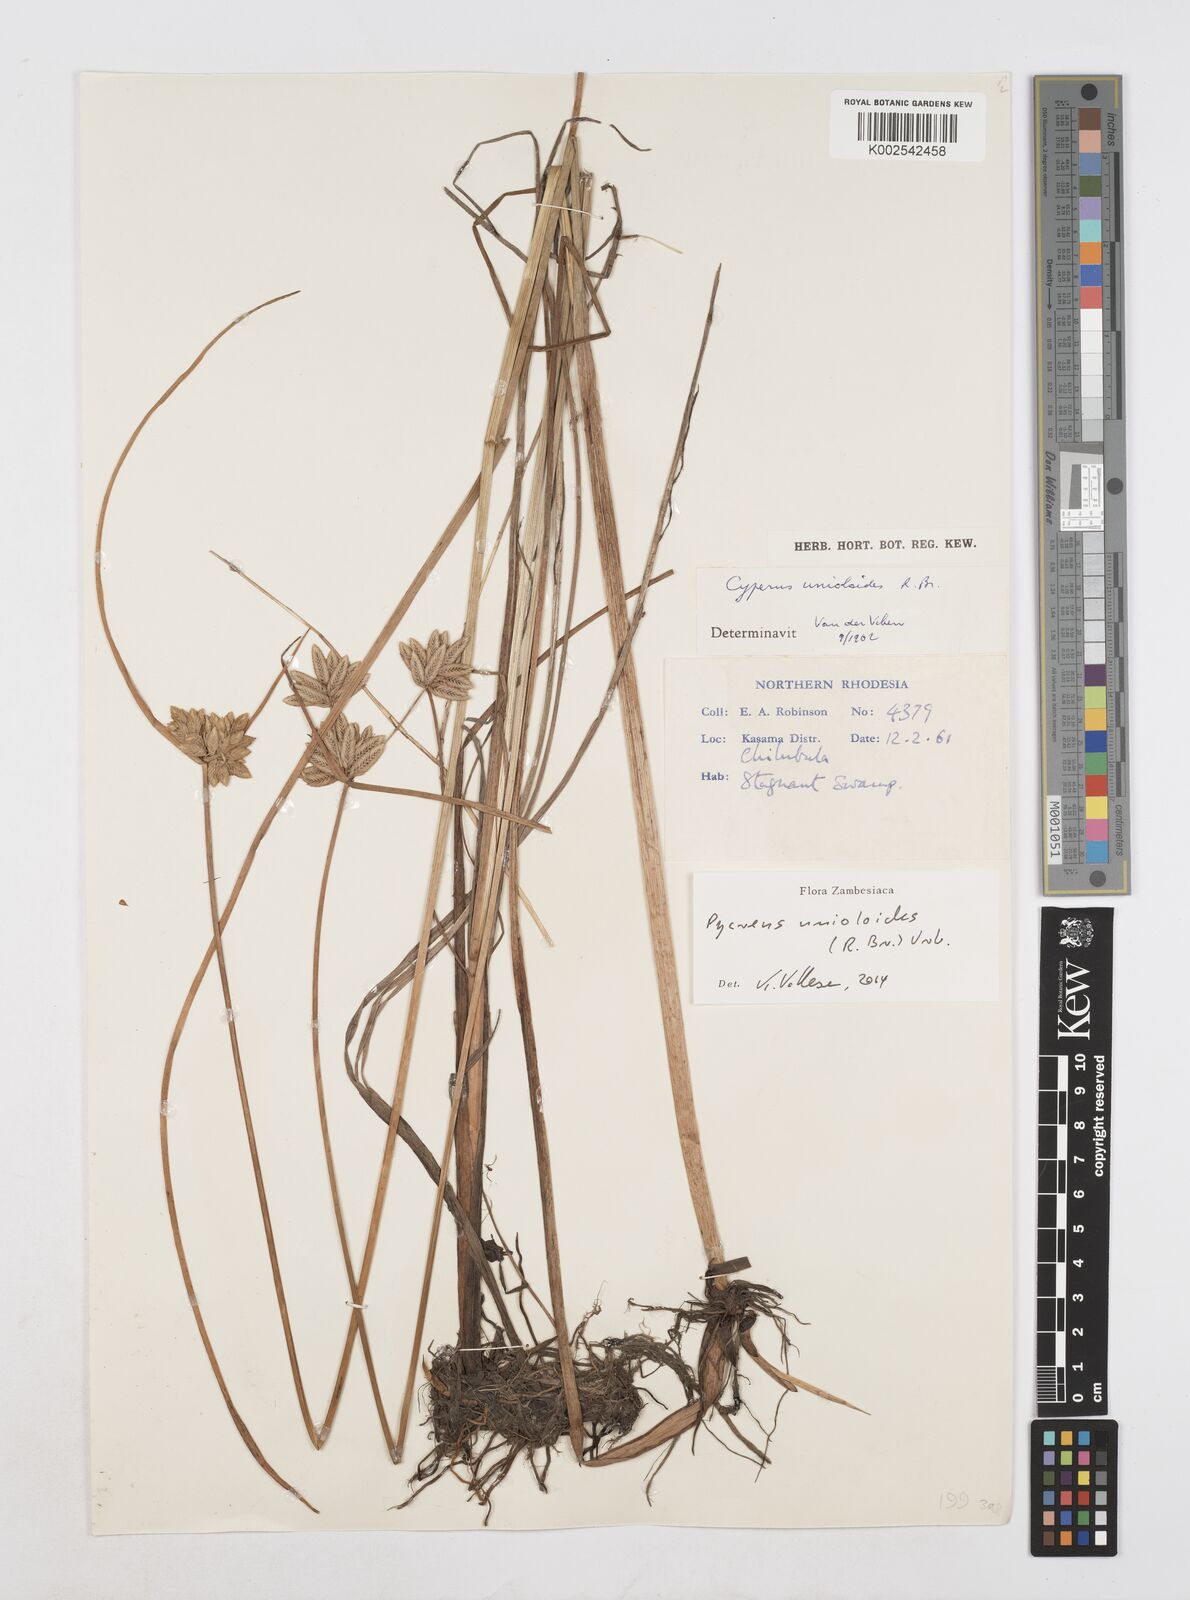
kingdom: Plantae
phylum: Tracheophyta
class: Liliopsida
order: Poales
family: Cyperaceae
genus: Cyperus
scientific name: Cyperus unioloides
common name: Uniola flatsedge
